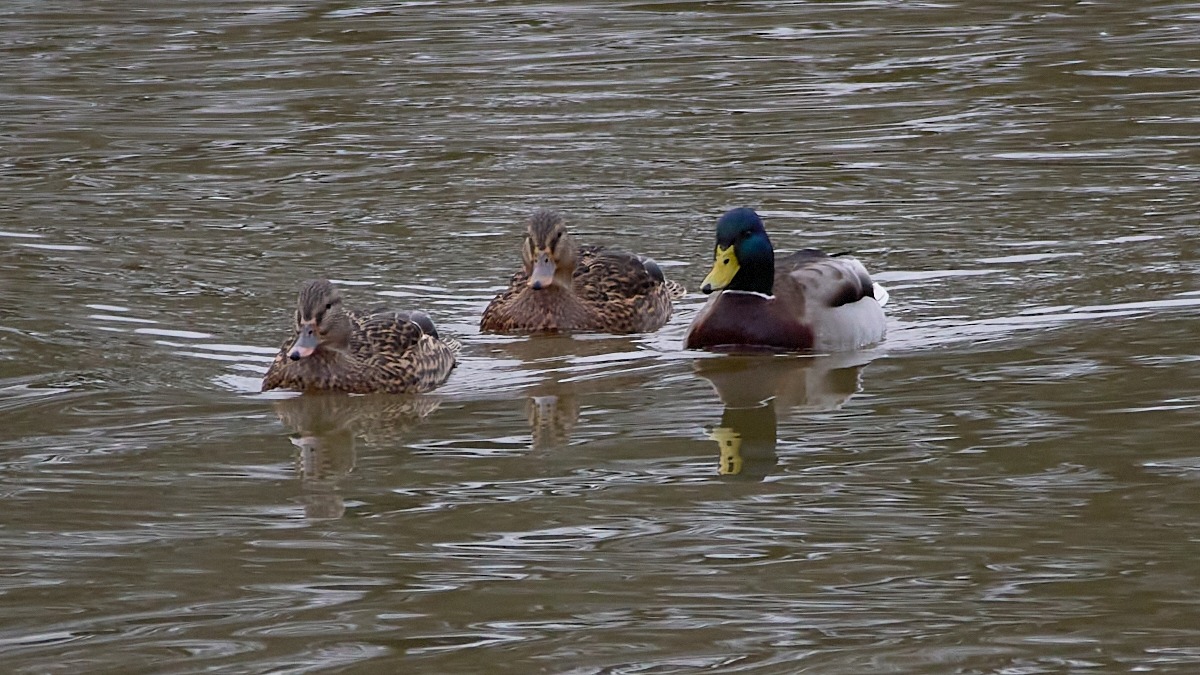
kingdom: Animalia
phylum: Chordata
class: Aves
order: Anseriformes
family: Anatidae
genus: Anas
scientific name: Anas platyrhynchos
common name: Gråand
